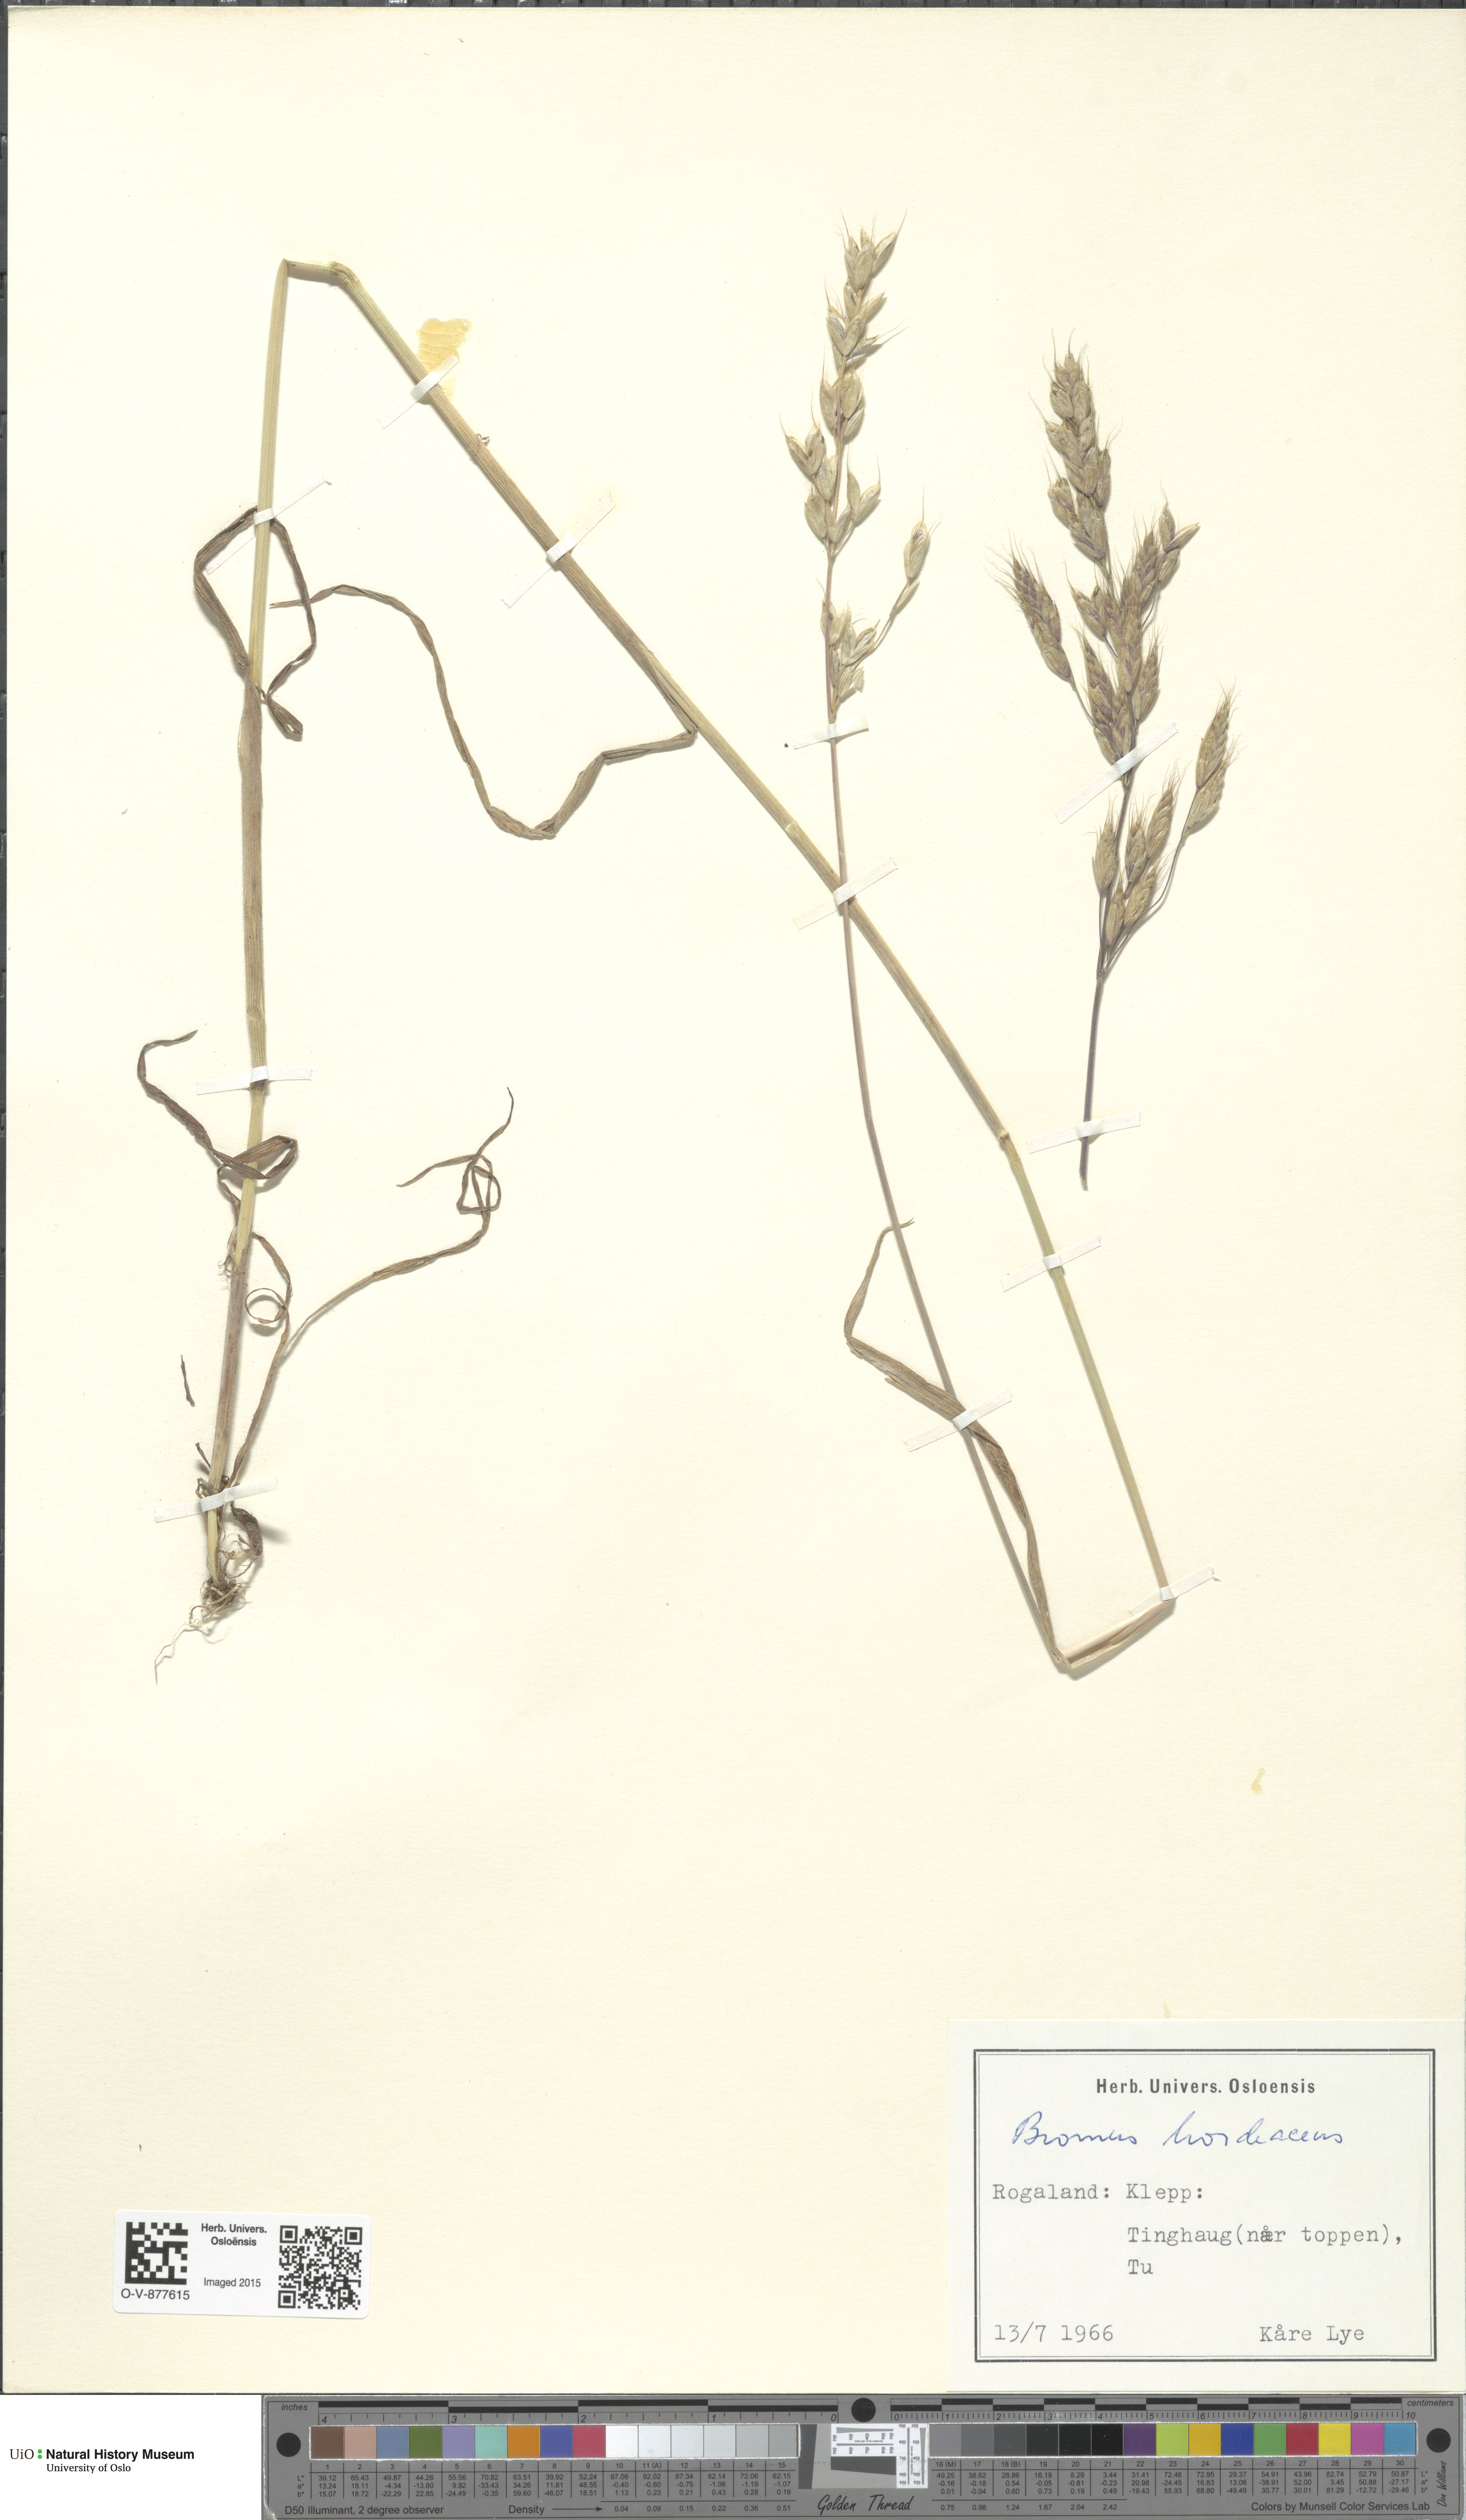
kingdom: Plantae
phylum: Tracheophyta
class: Liliopsida
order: Poales
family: Poaceae
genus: Bromus
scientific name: Bromus hordeaceus
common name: Soft brome
